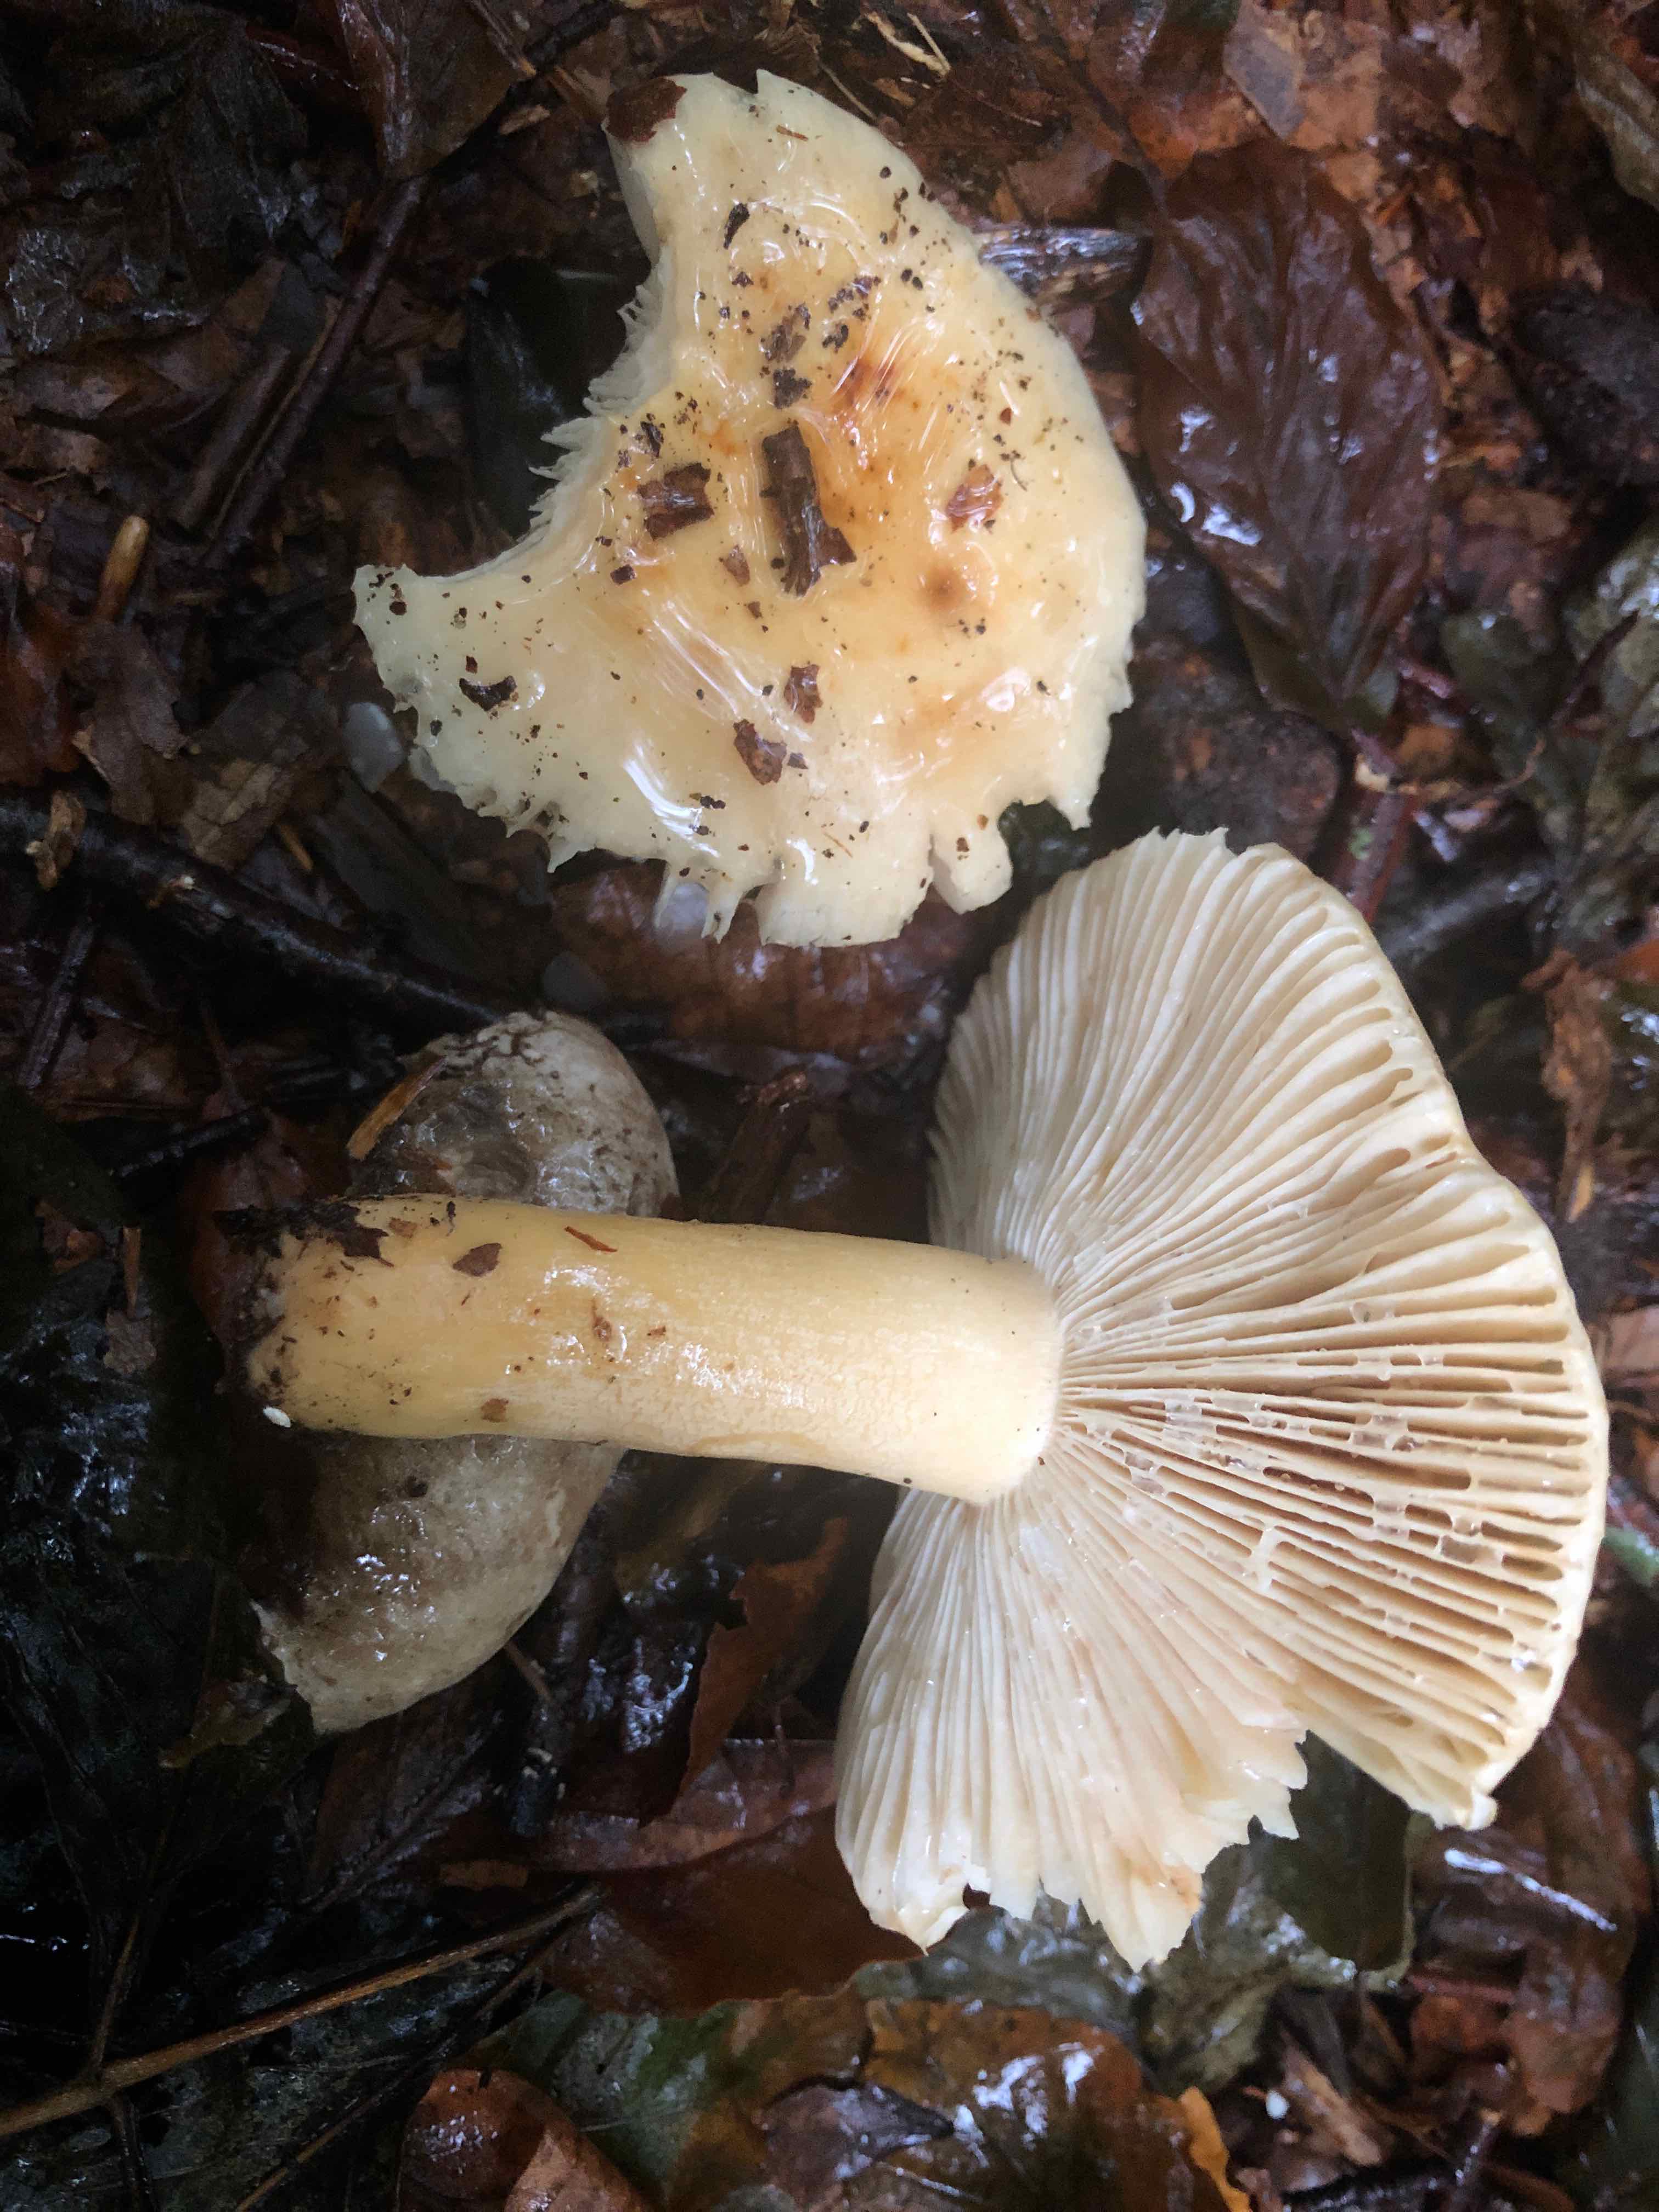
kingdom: Fungi
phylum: Basidiomycota
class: Agaricomycetes
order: Russulales
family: Russulaceae
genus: Russula
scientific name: Russula fellea
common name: galde-skørhat
